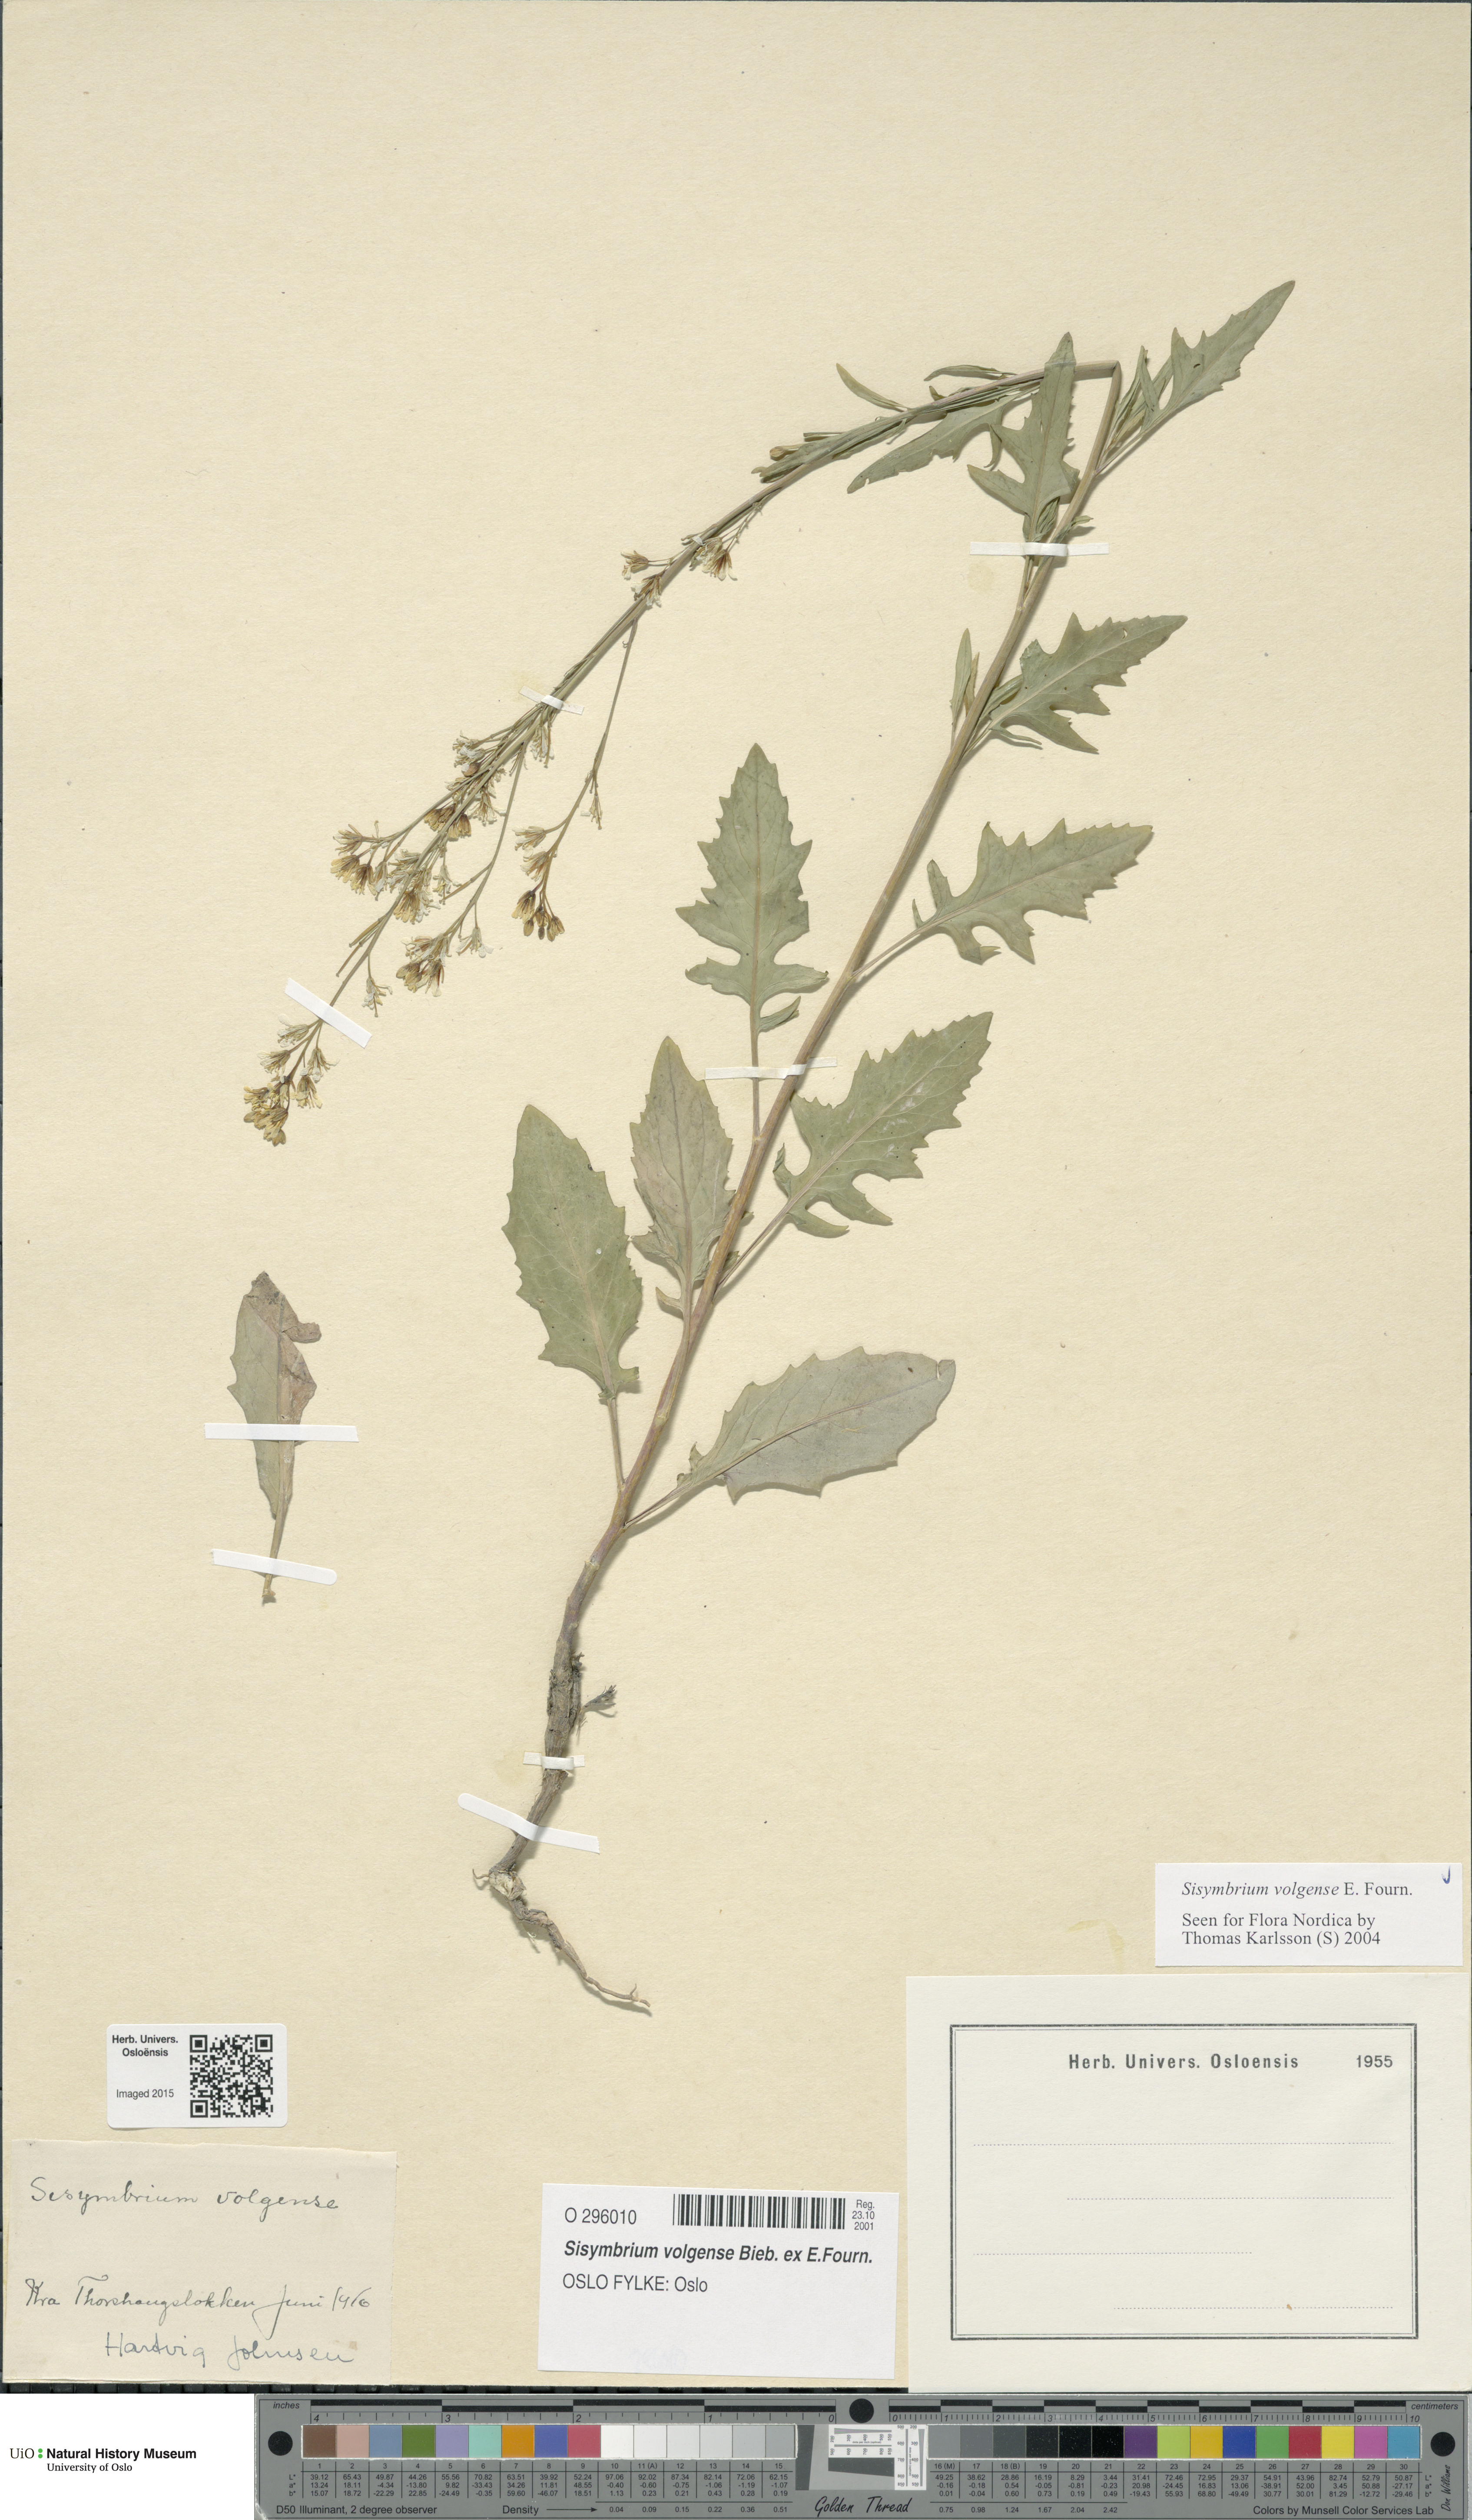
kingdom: Plantae
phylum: Tracheophyta
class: Magnoliopsida
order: Brassicales
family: Brassicaceae
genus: Sisymbrium
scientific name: Sisymbrium volgense
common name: Russian mustard
